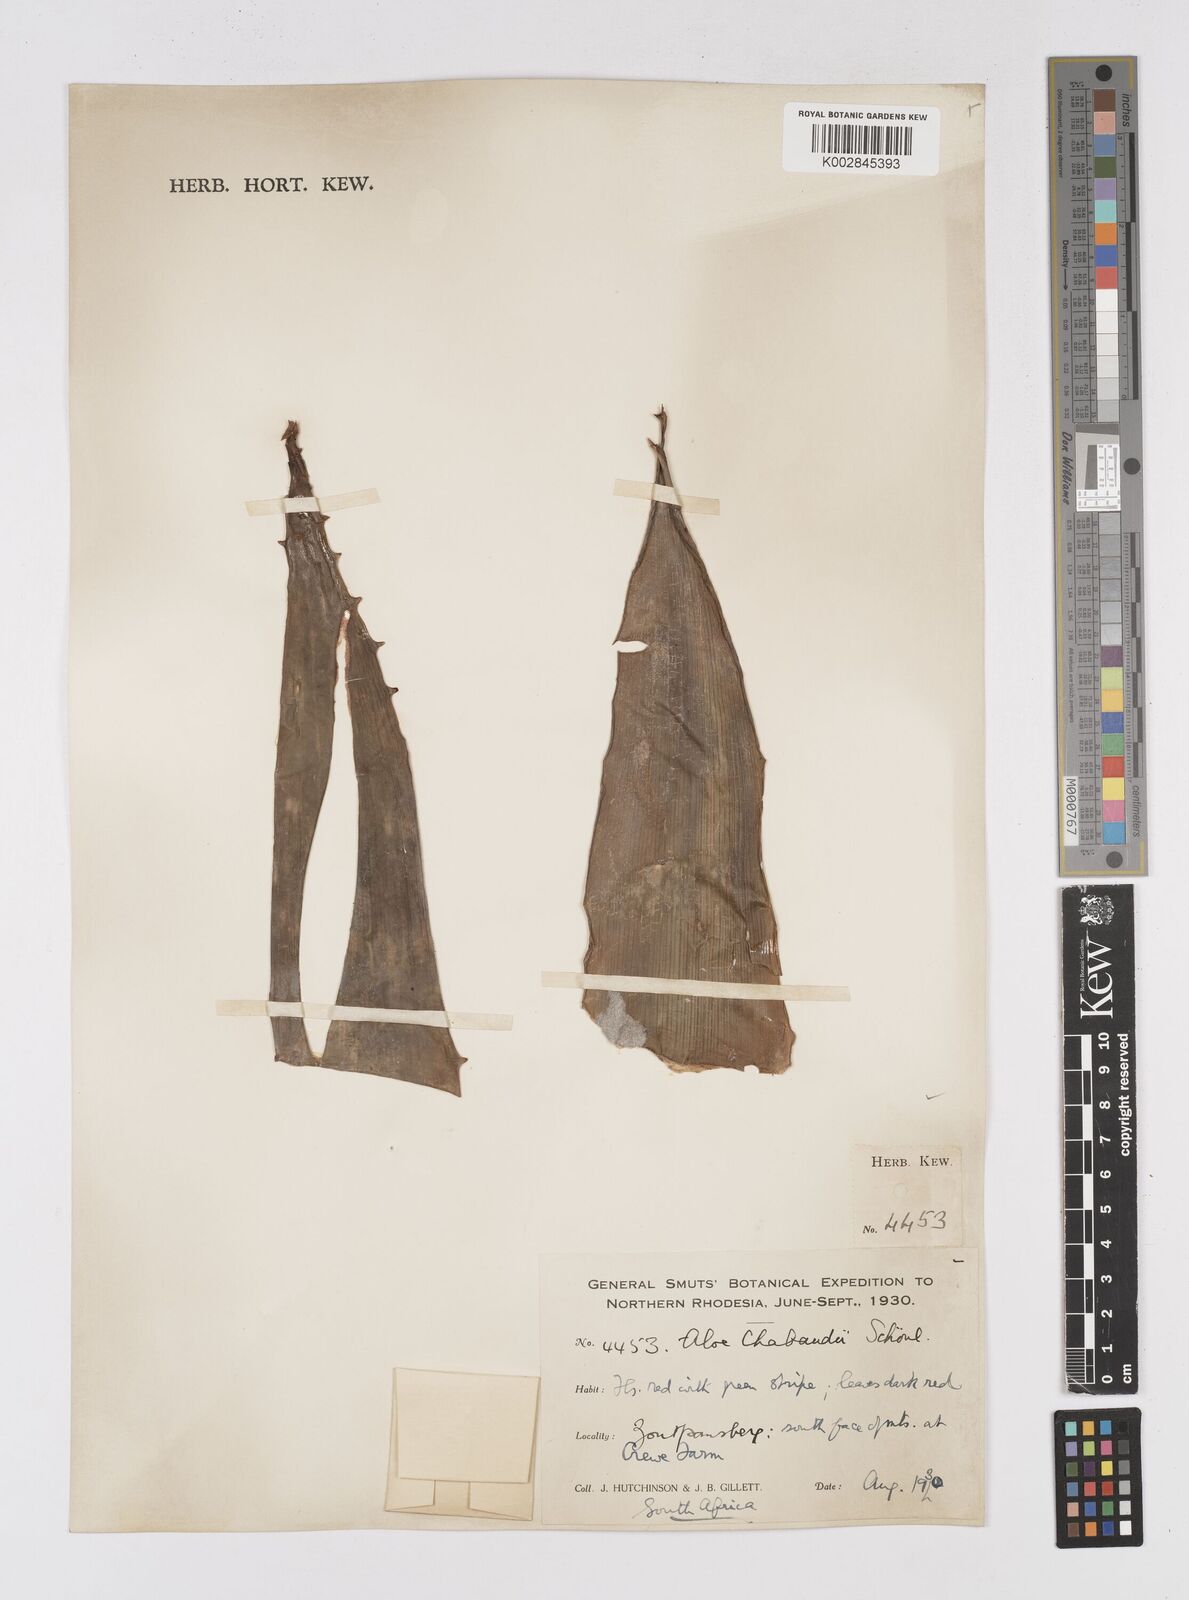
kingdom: Plantae
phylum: Tracheophyta
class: Liliopsida
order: Asparagales
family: Asphodelaceae
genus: Aloe
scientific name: Aloe chabaudii
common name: Chabaud's aloe
